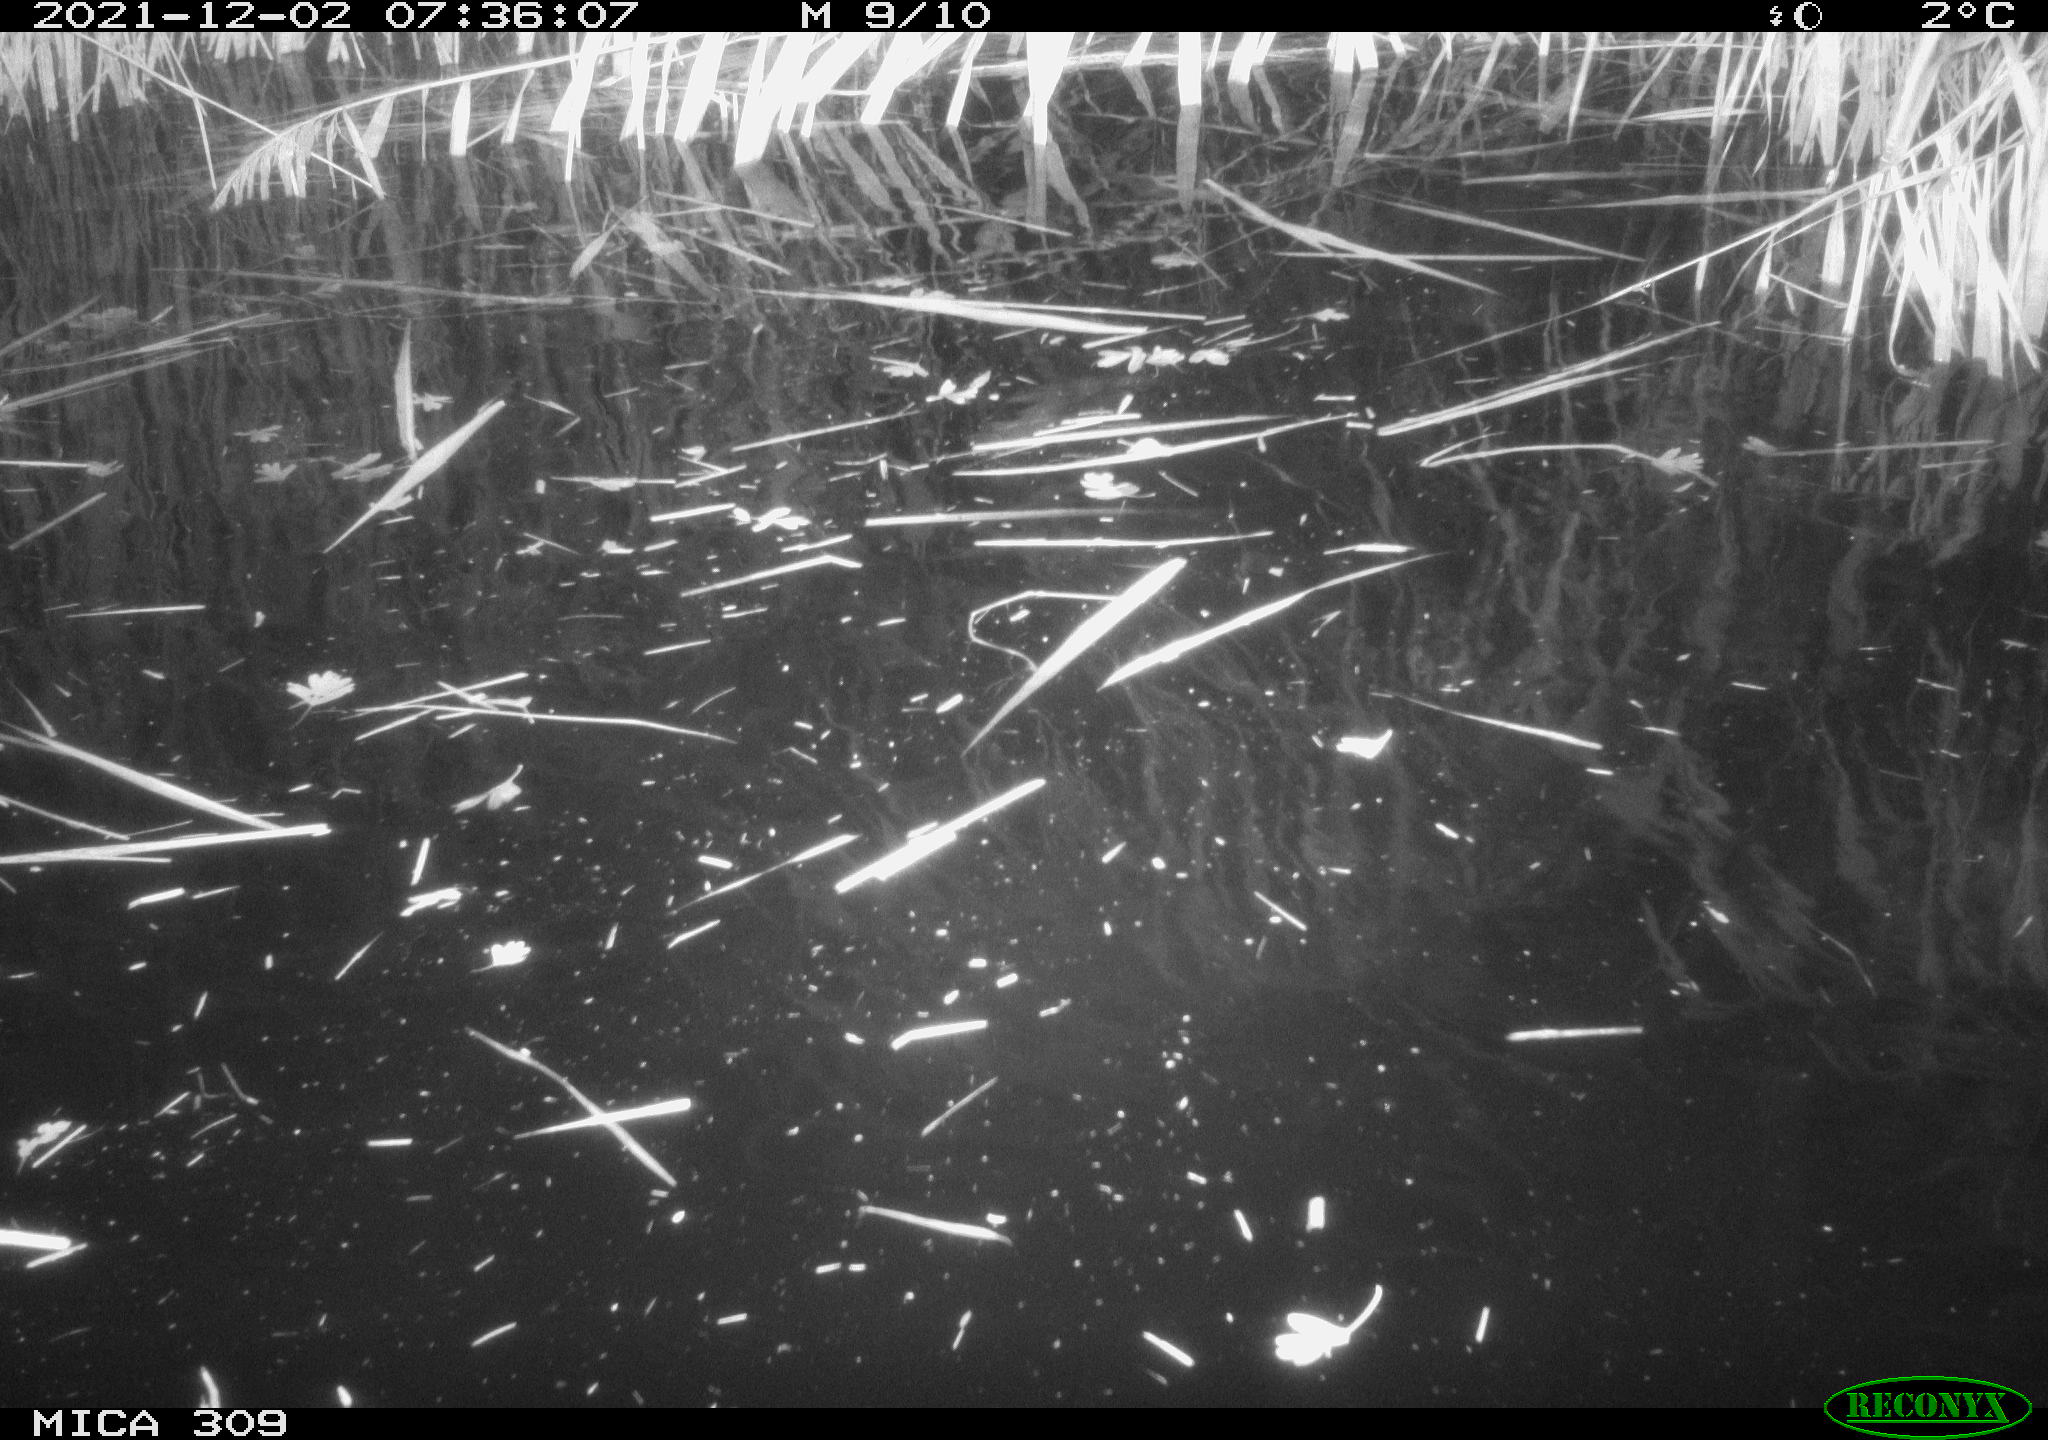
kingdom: Animalia
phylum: Chordata
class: Mammalia
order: Rodentia
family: Muridae
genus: Rattus
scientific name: Rattus norvegicus
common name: Brown rat
